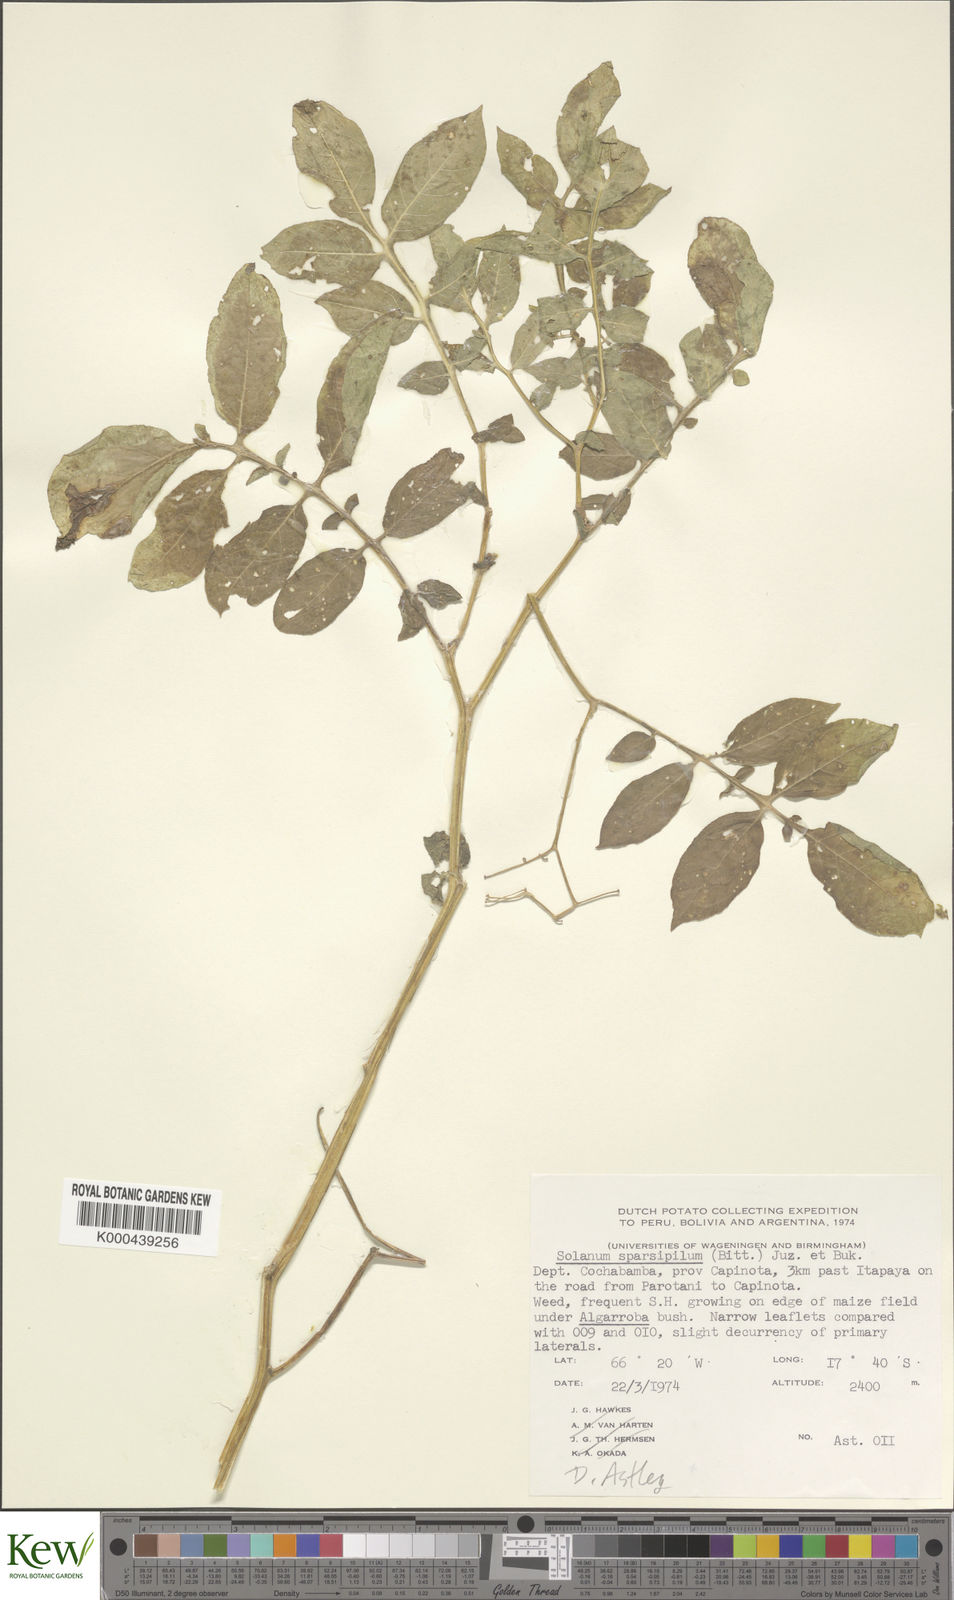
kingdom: Plantae
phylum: Tracheophyta
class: Magnoliopsida
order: Solanales
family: Solanaceae
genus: Solanum
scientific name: Solanum brevicaule
